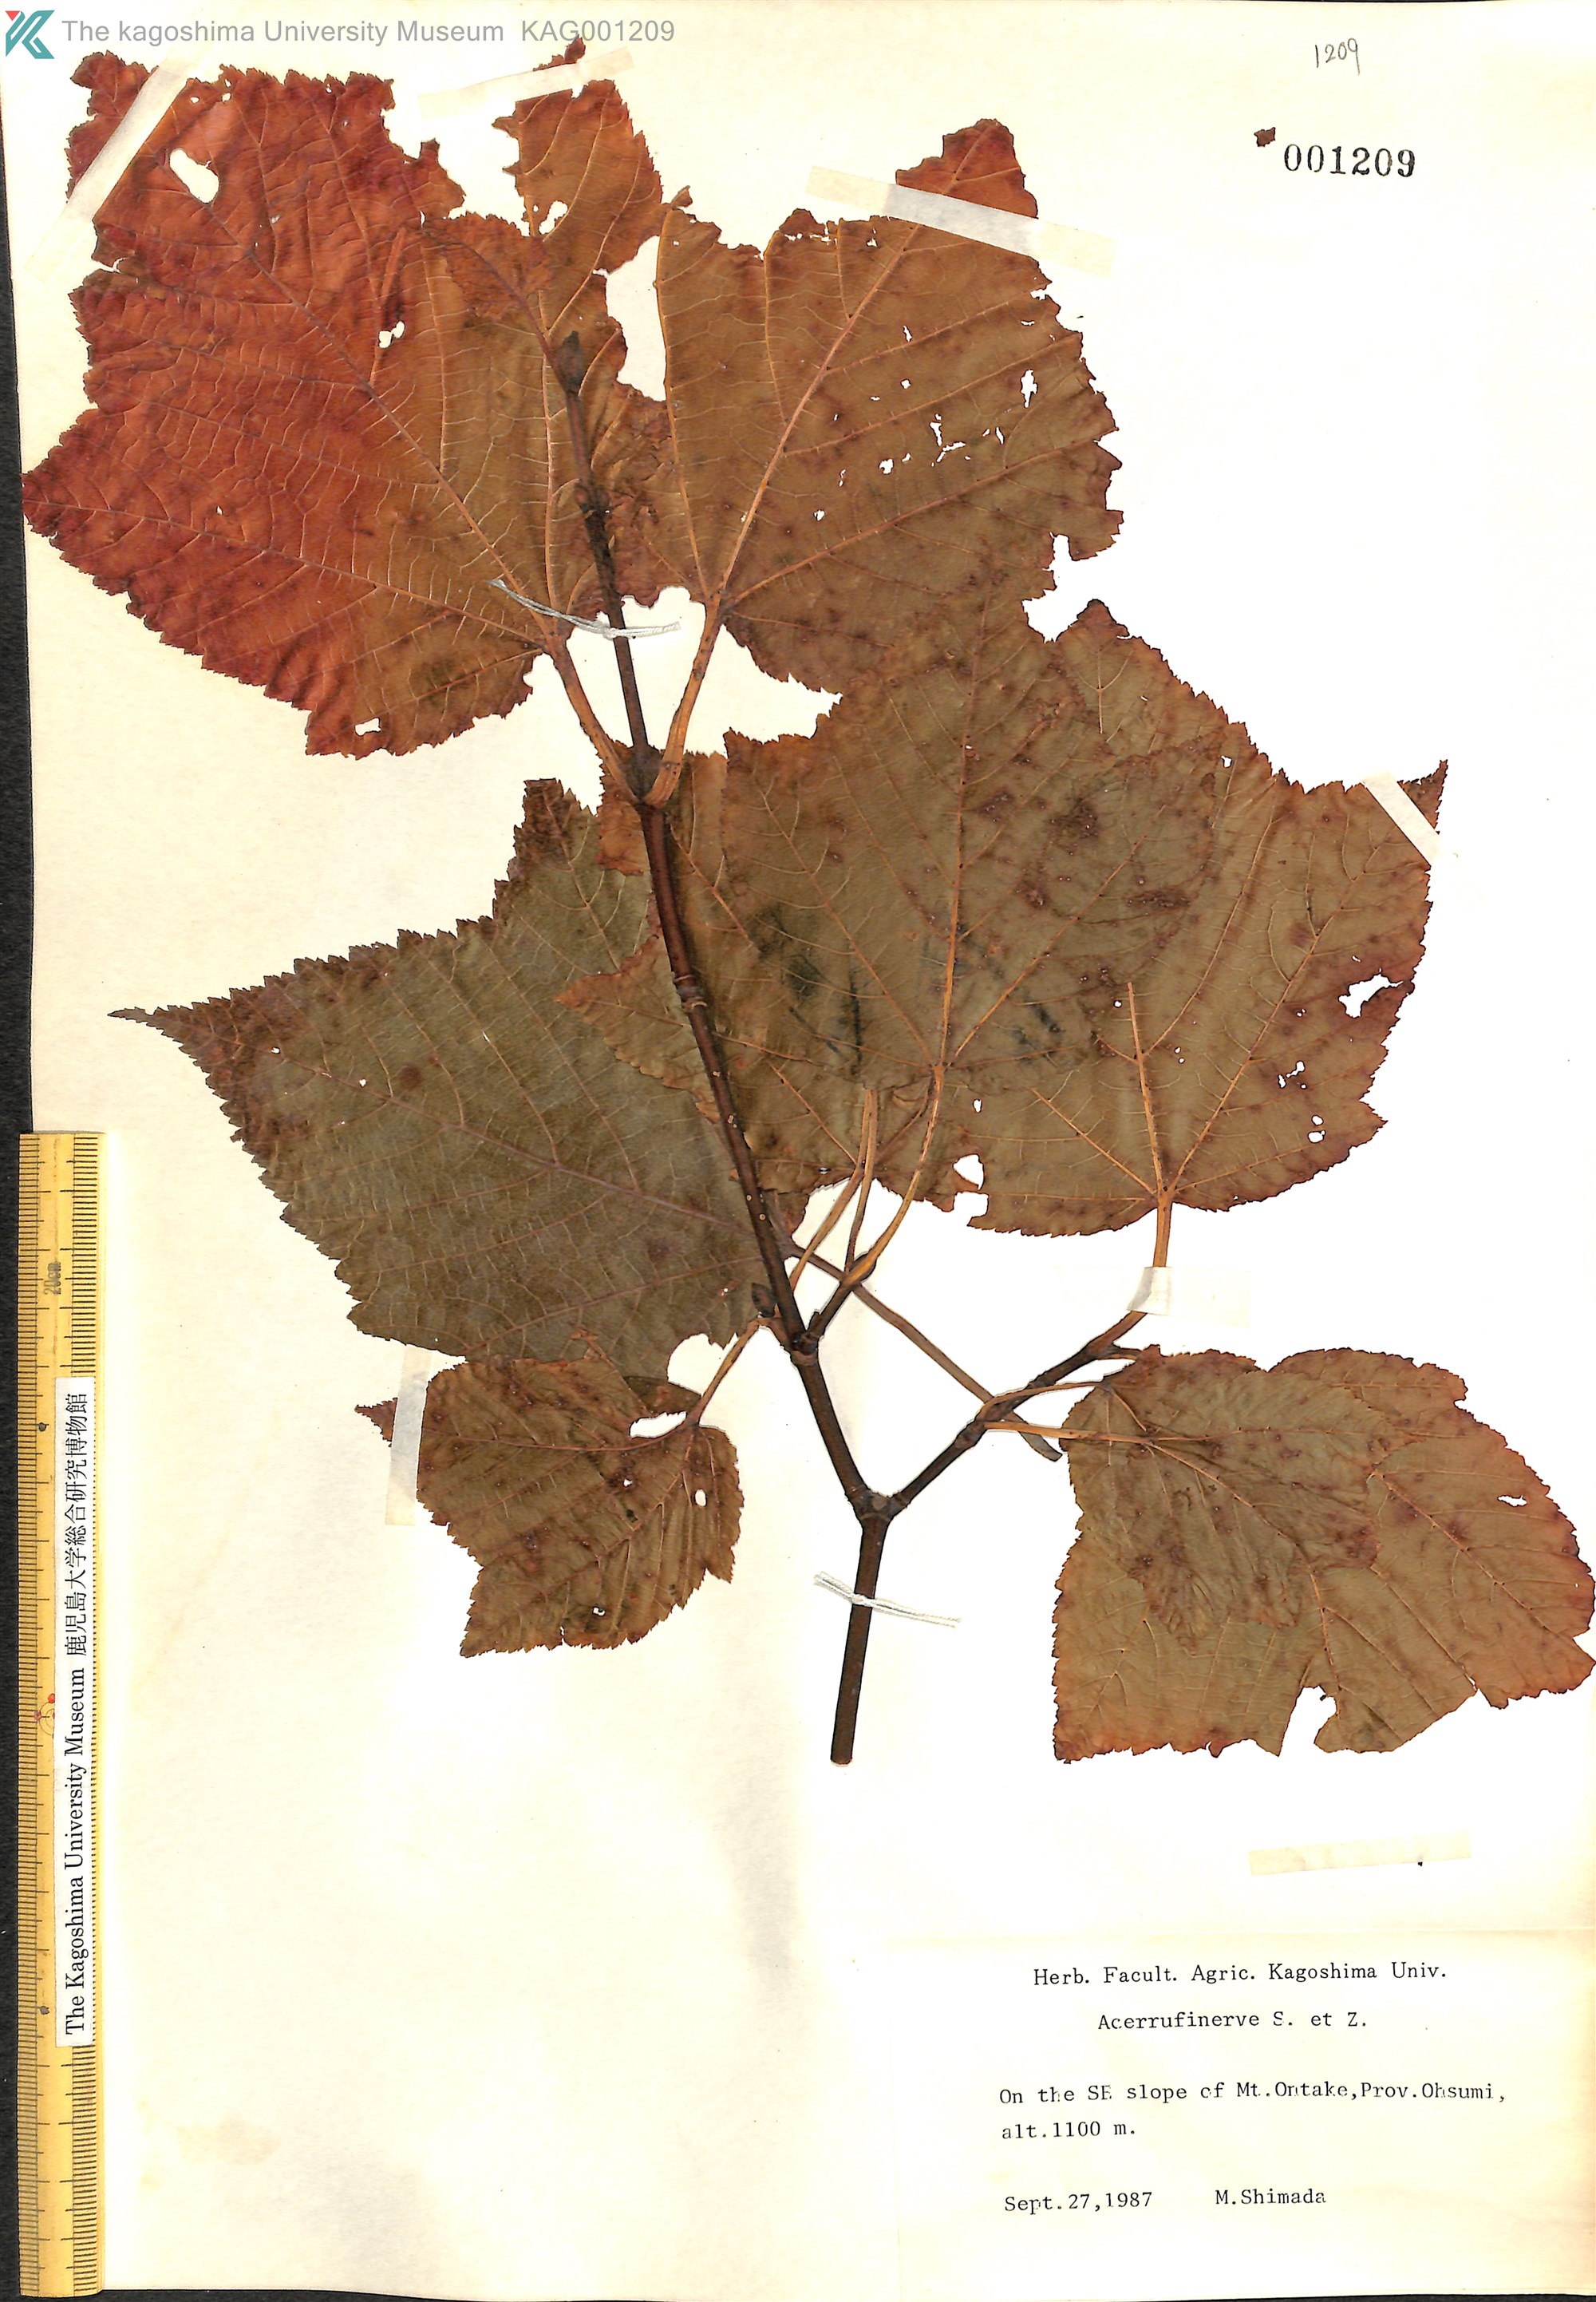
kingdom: Plantae
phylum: Tracheophyta
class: Magnoliopsida
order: Sapindales
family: Sapindaceae
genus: Acer
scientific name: Acer rufinerve
